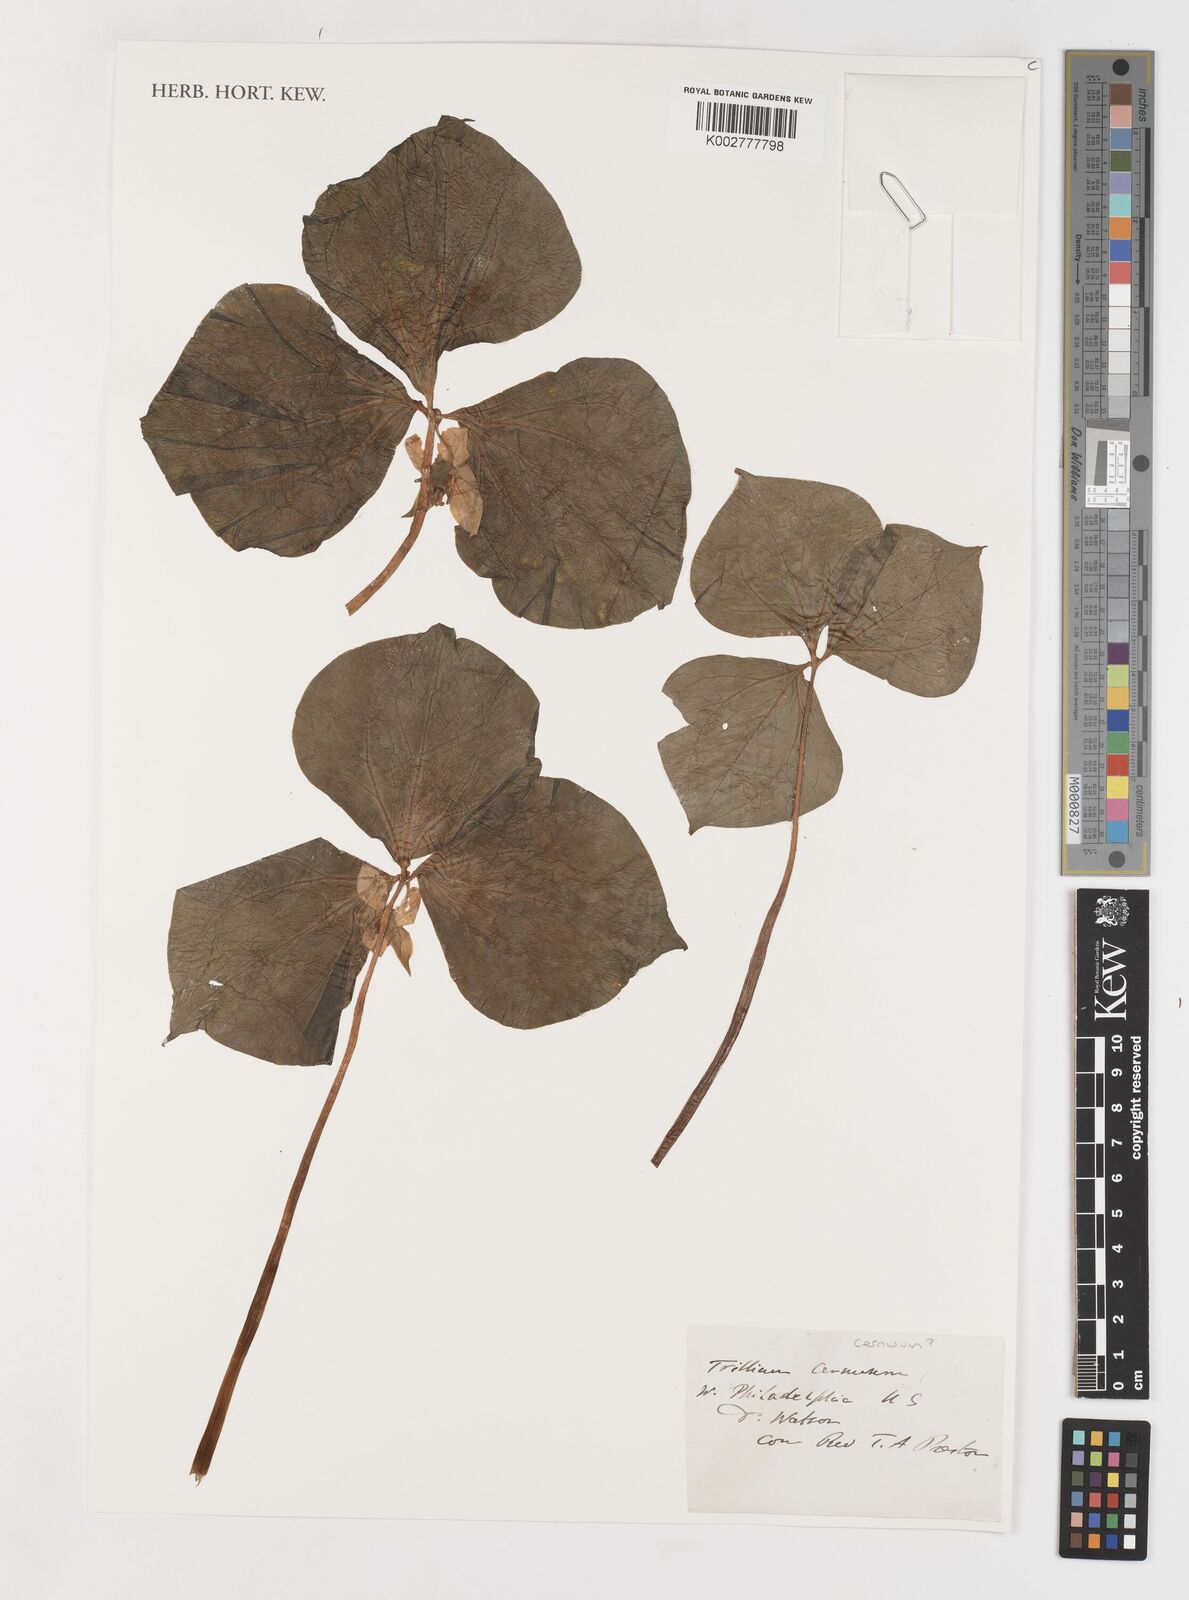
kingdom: Plantae
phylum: Tracheophyta
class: Liliopsida
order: Liliales
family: Melanthiaceae
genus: Trillium
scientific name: Trillium cernuum
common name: Nodding trillium
